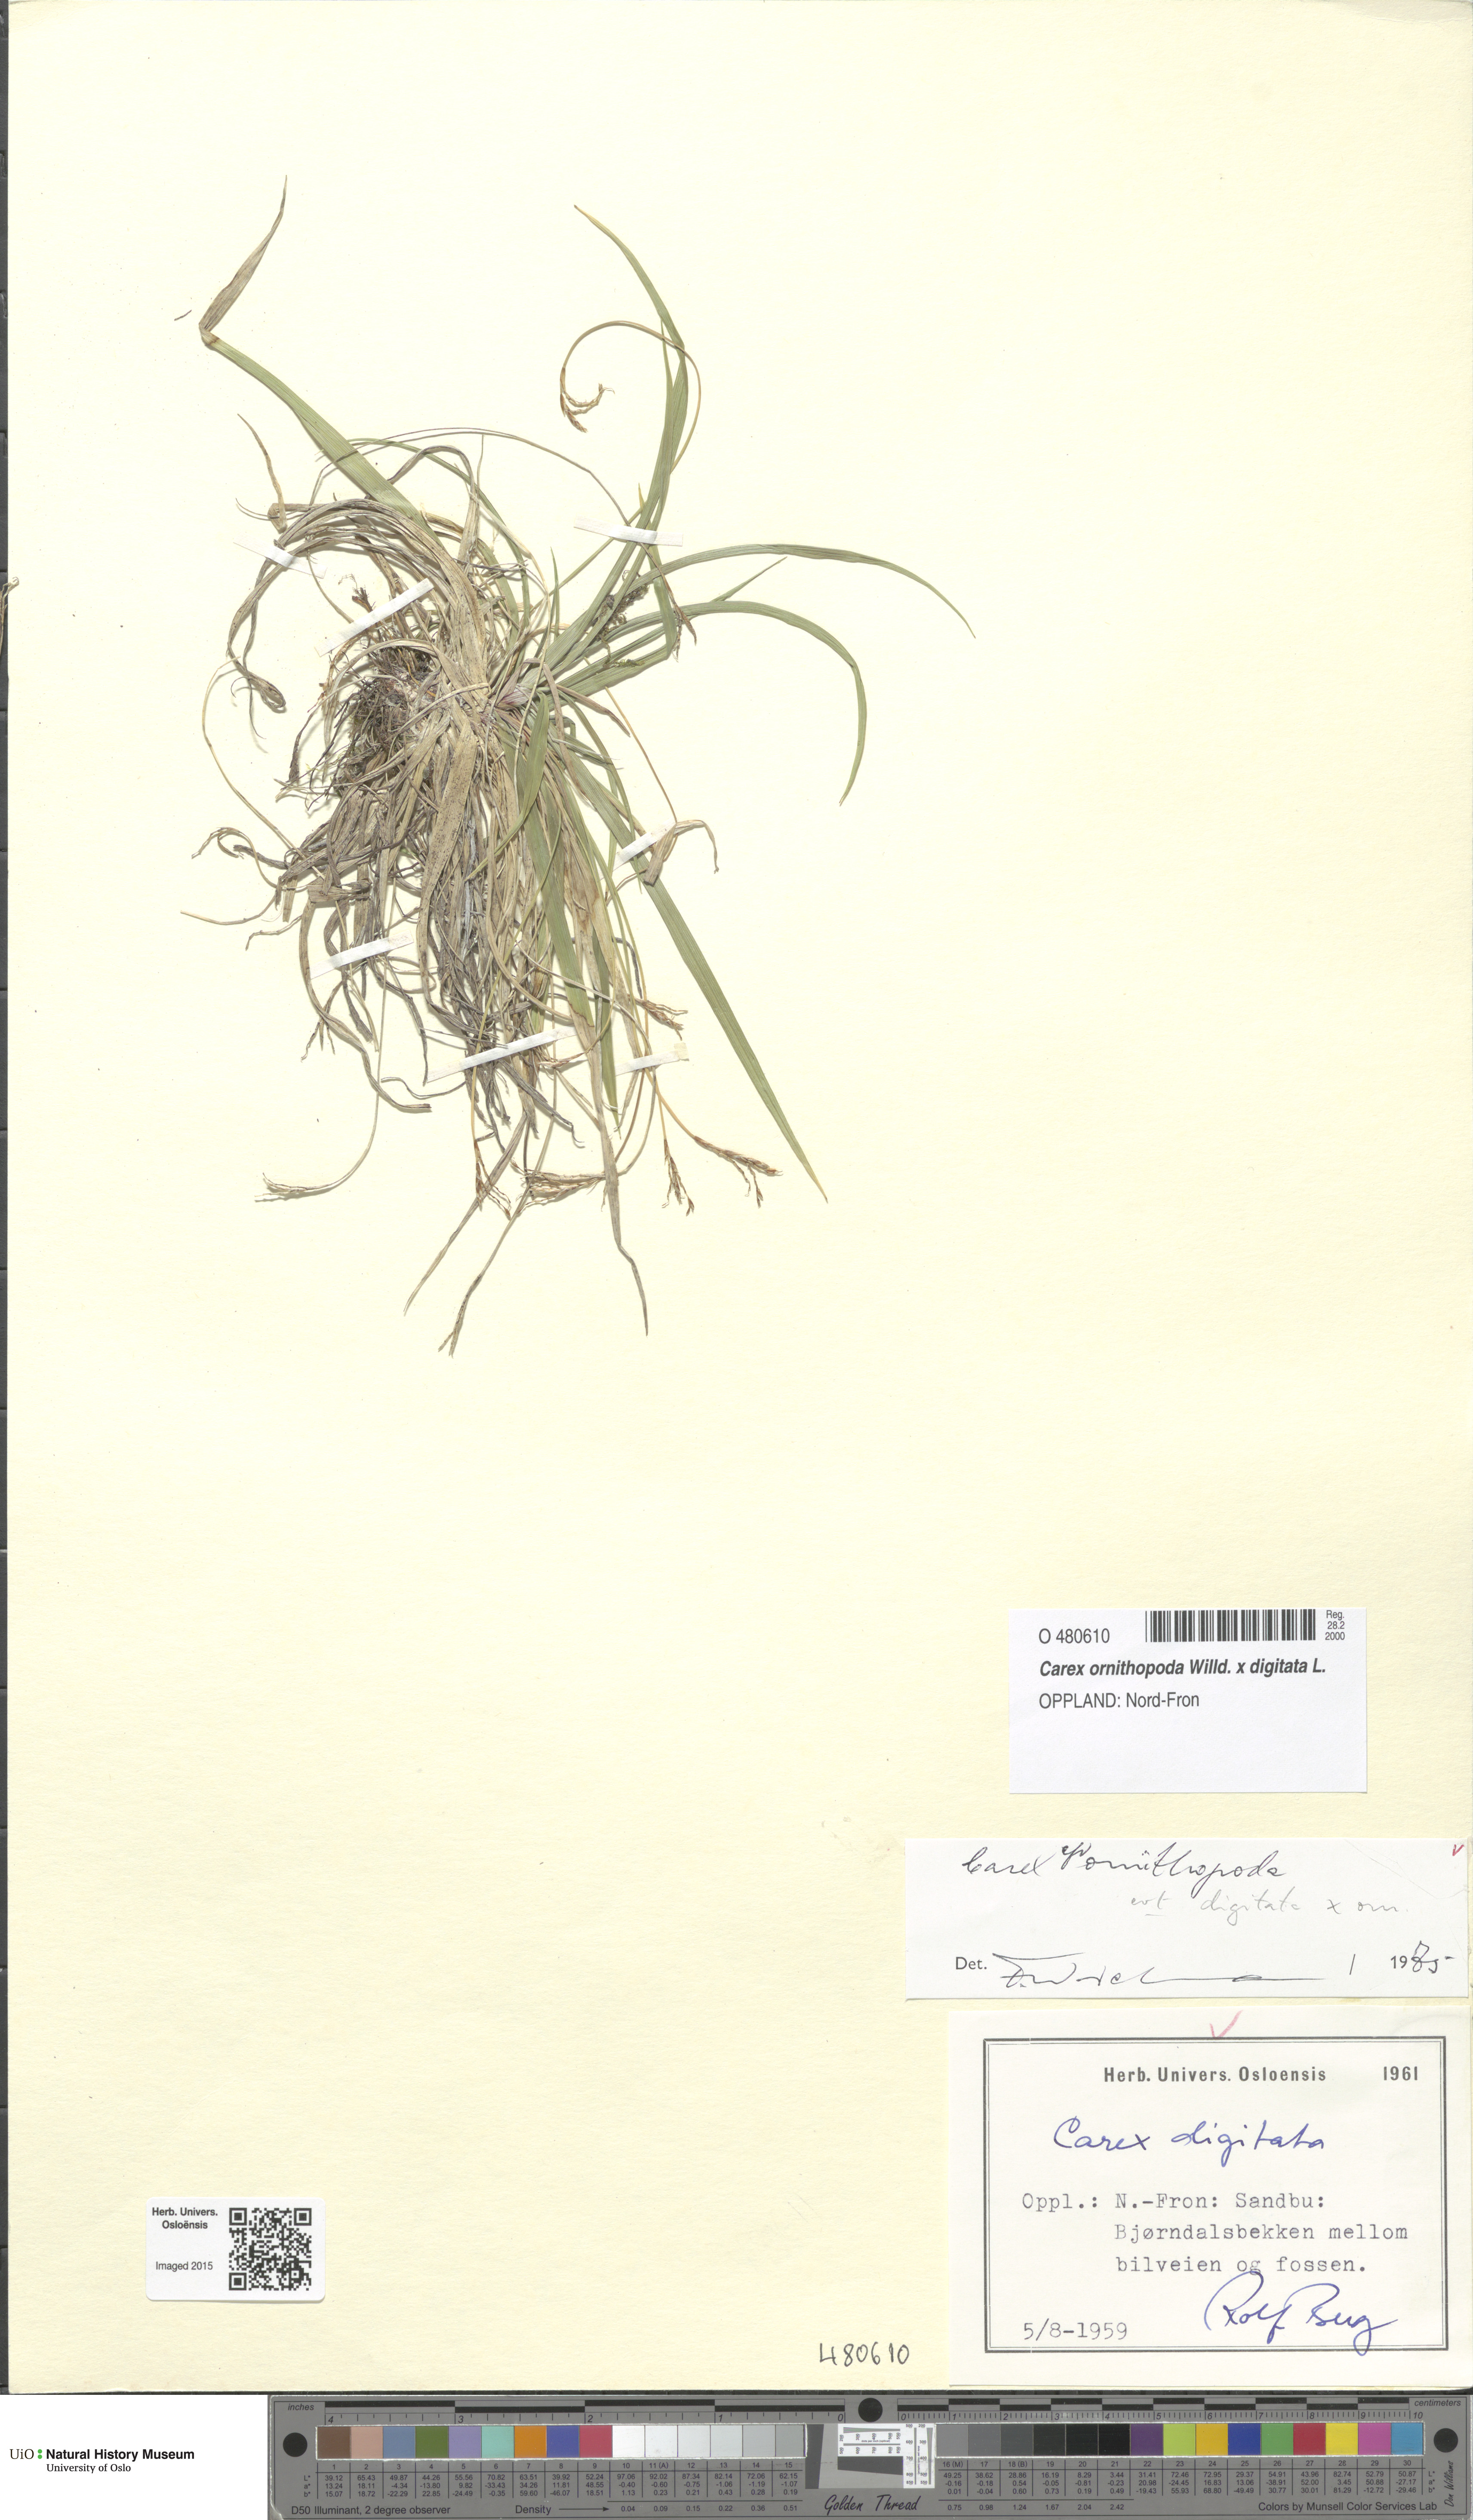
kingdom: Plantae
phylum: Tracheophyta
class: Liliopsida
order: Poales
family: Cyperaceae
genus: Carex
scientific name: Carex ornithopoda
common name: Bird's-foot sedge
